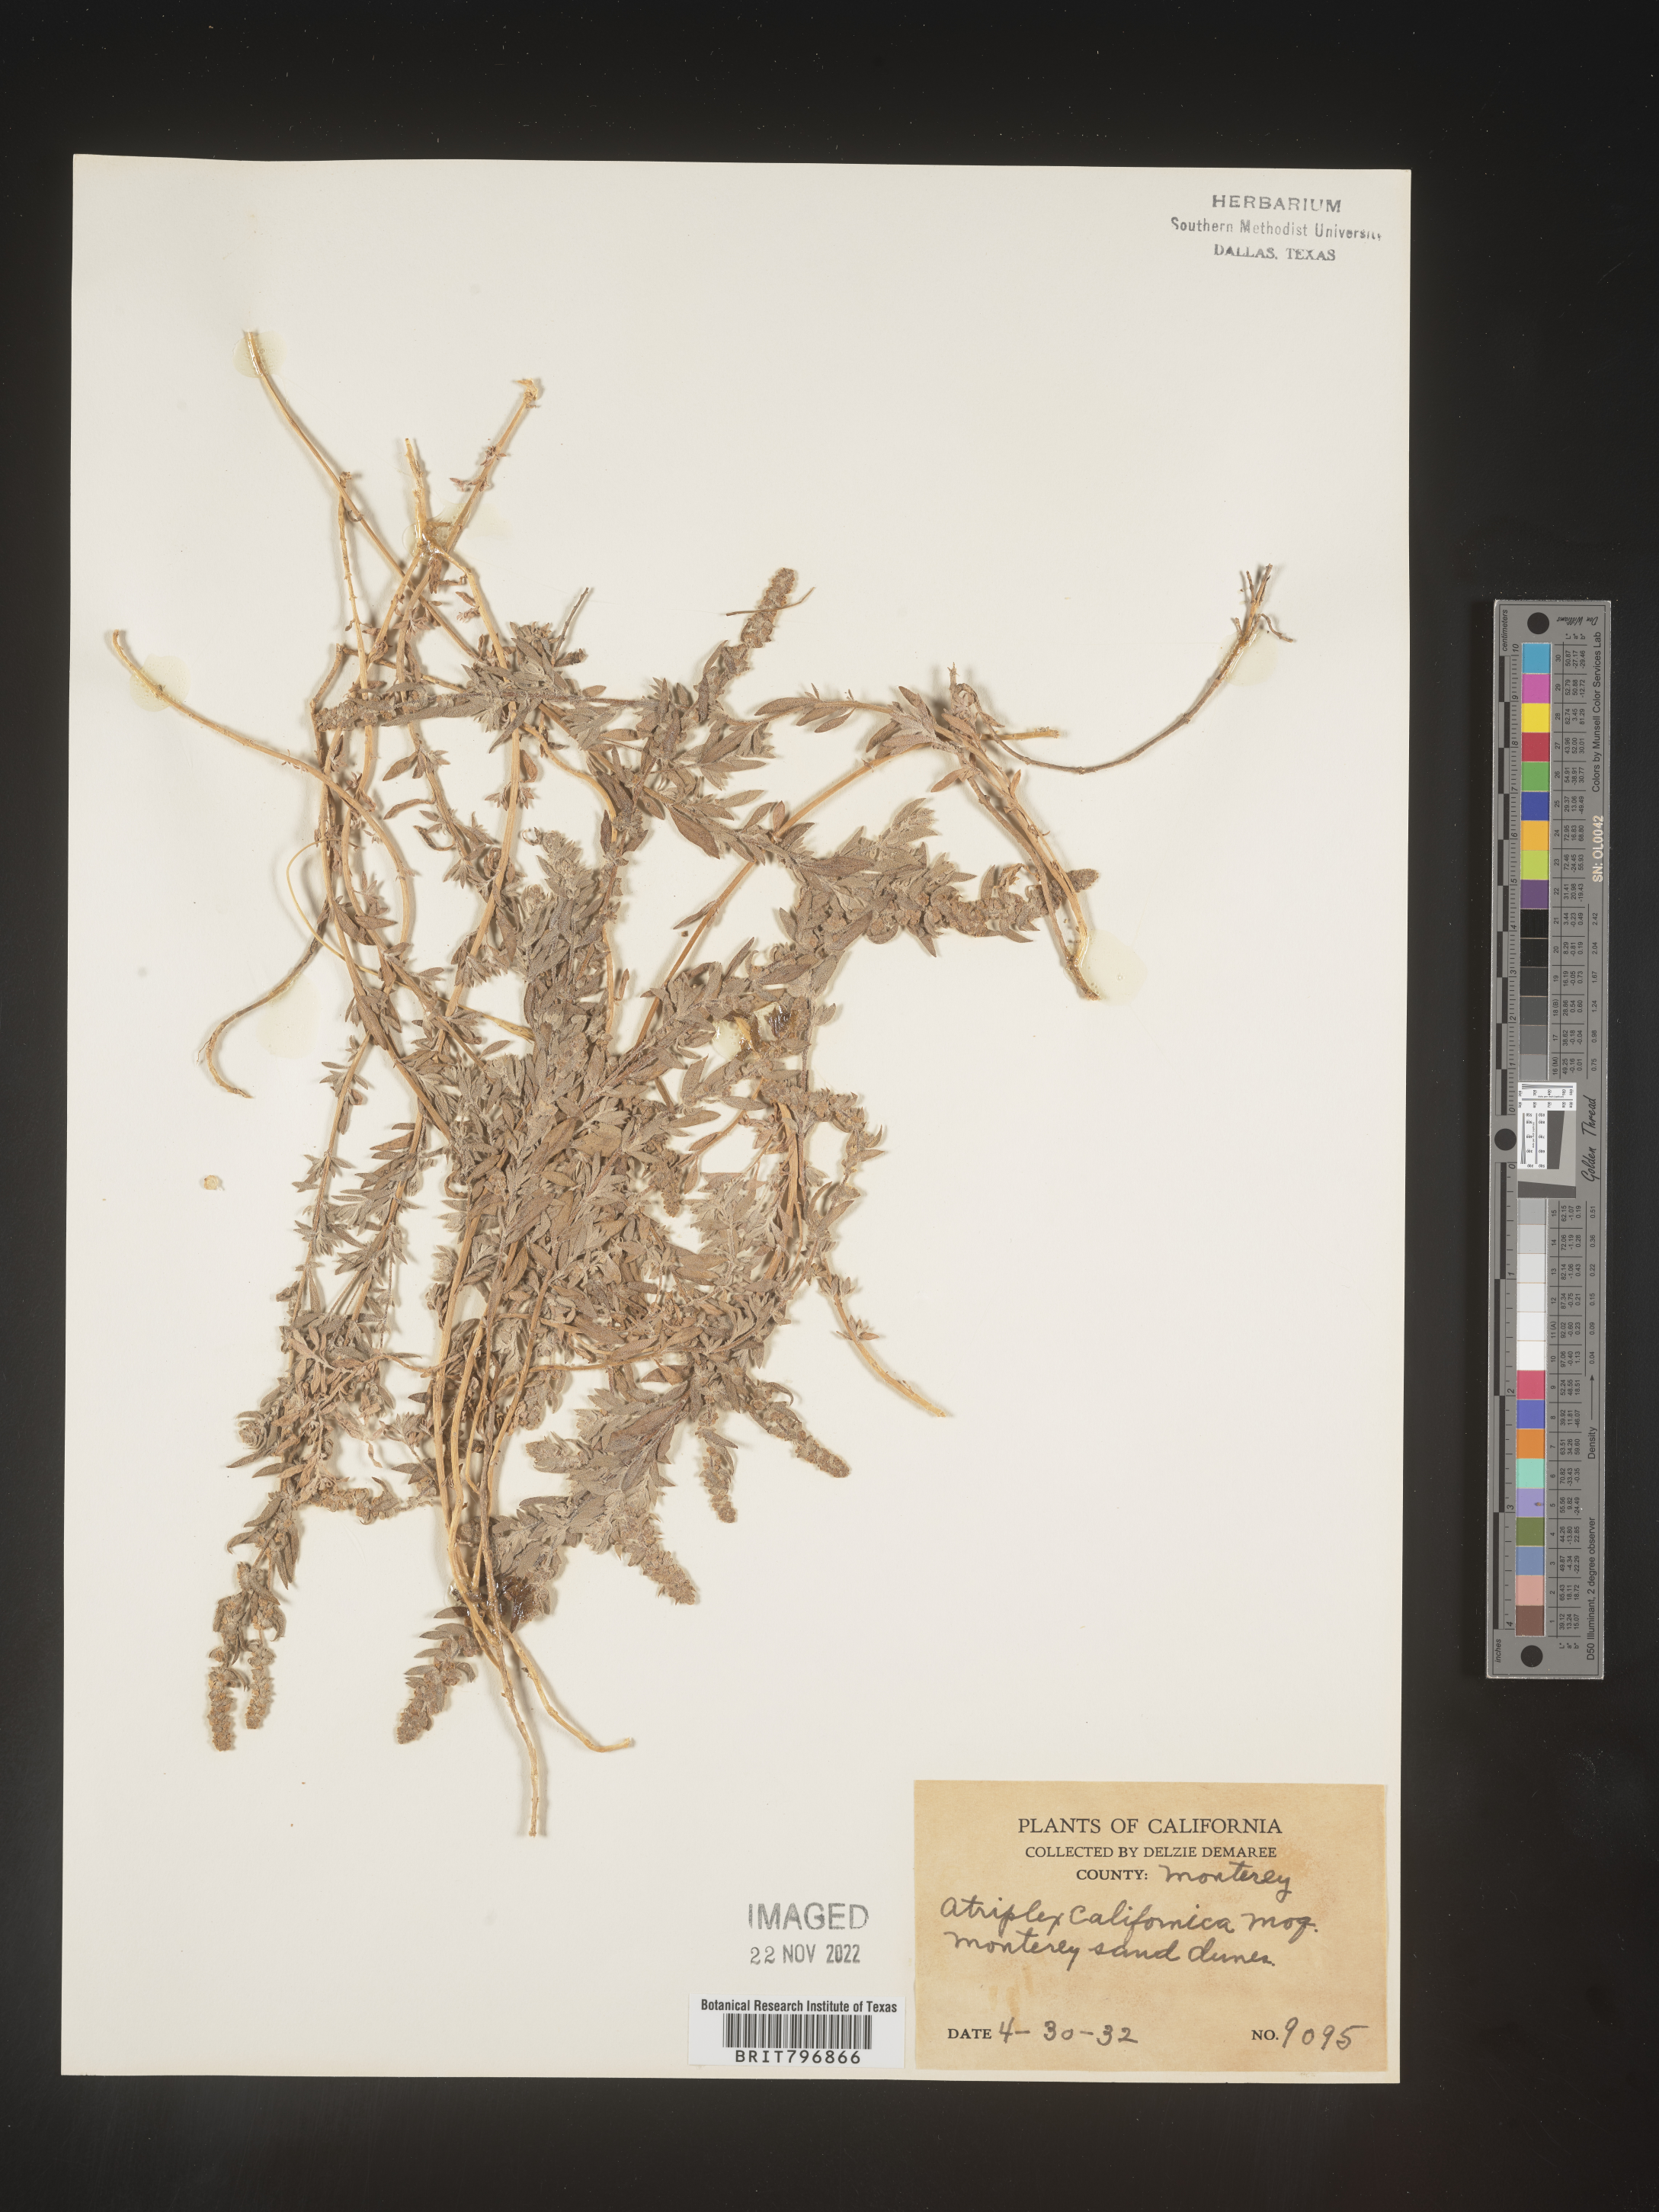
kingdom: Plantae
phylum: Tracheophyta
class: Magnoliopsida
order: Caryophyllales
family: Amaranthaceae
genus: Atriplex
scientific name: Atriplex
